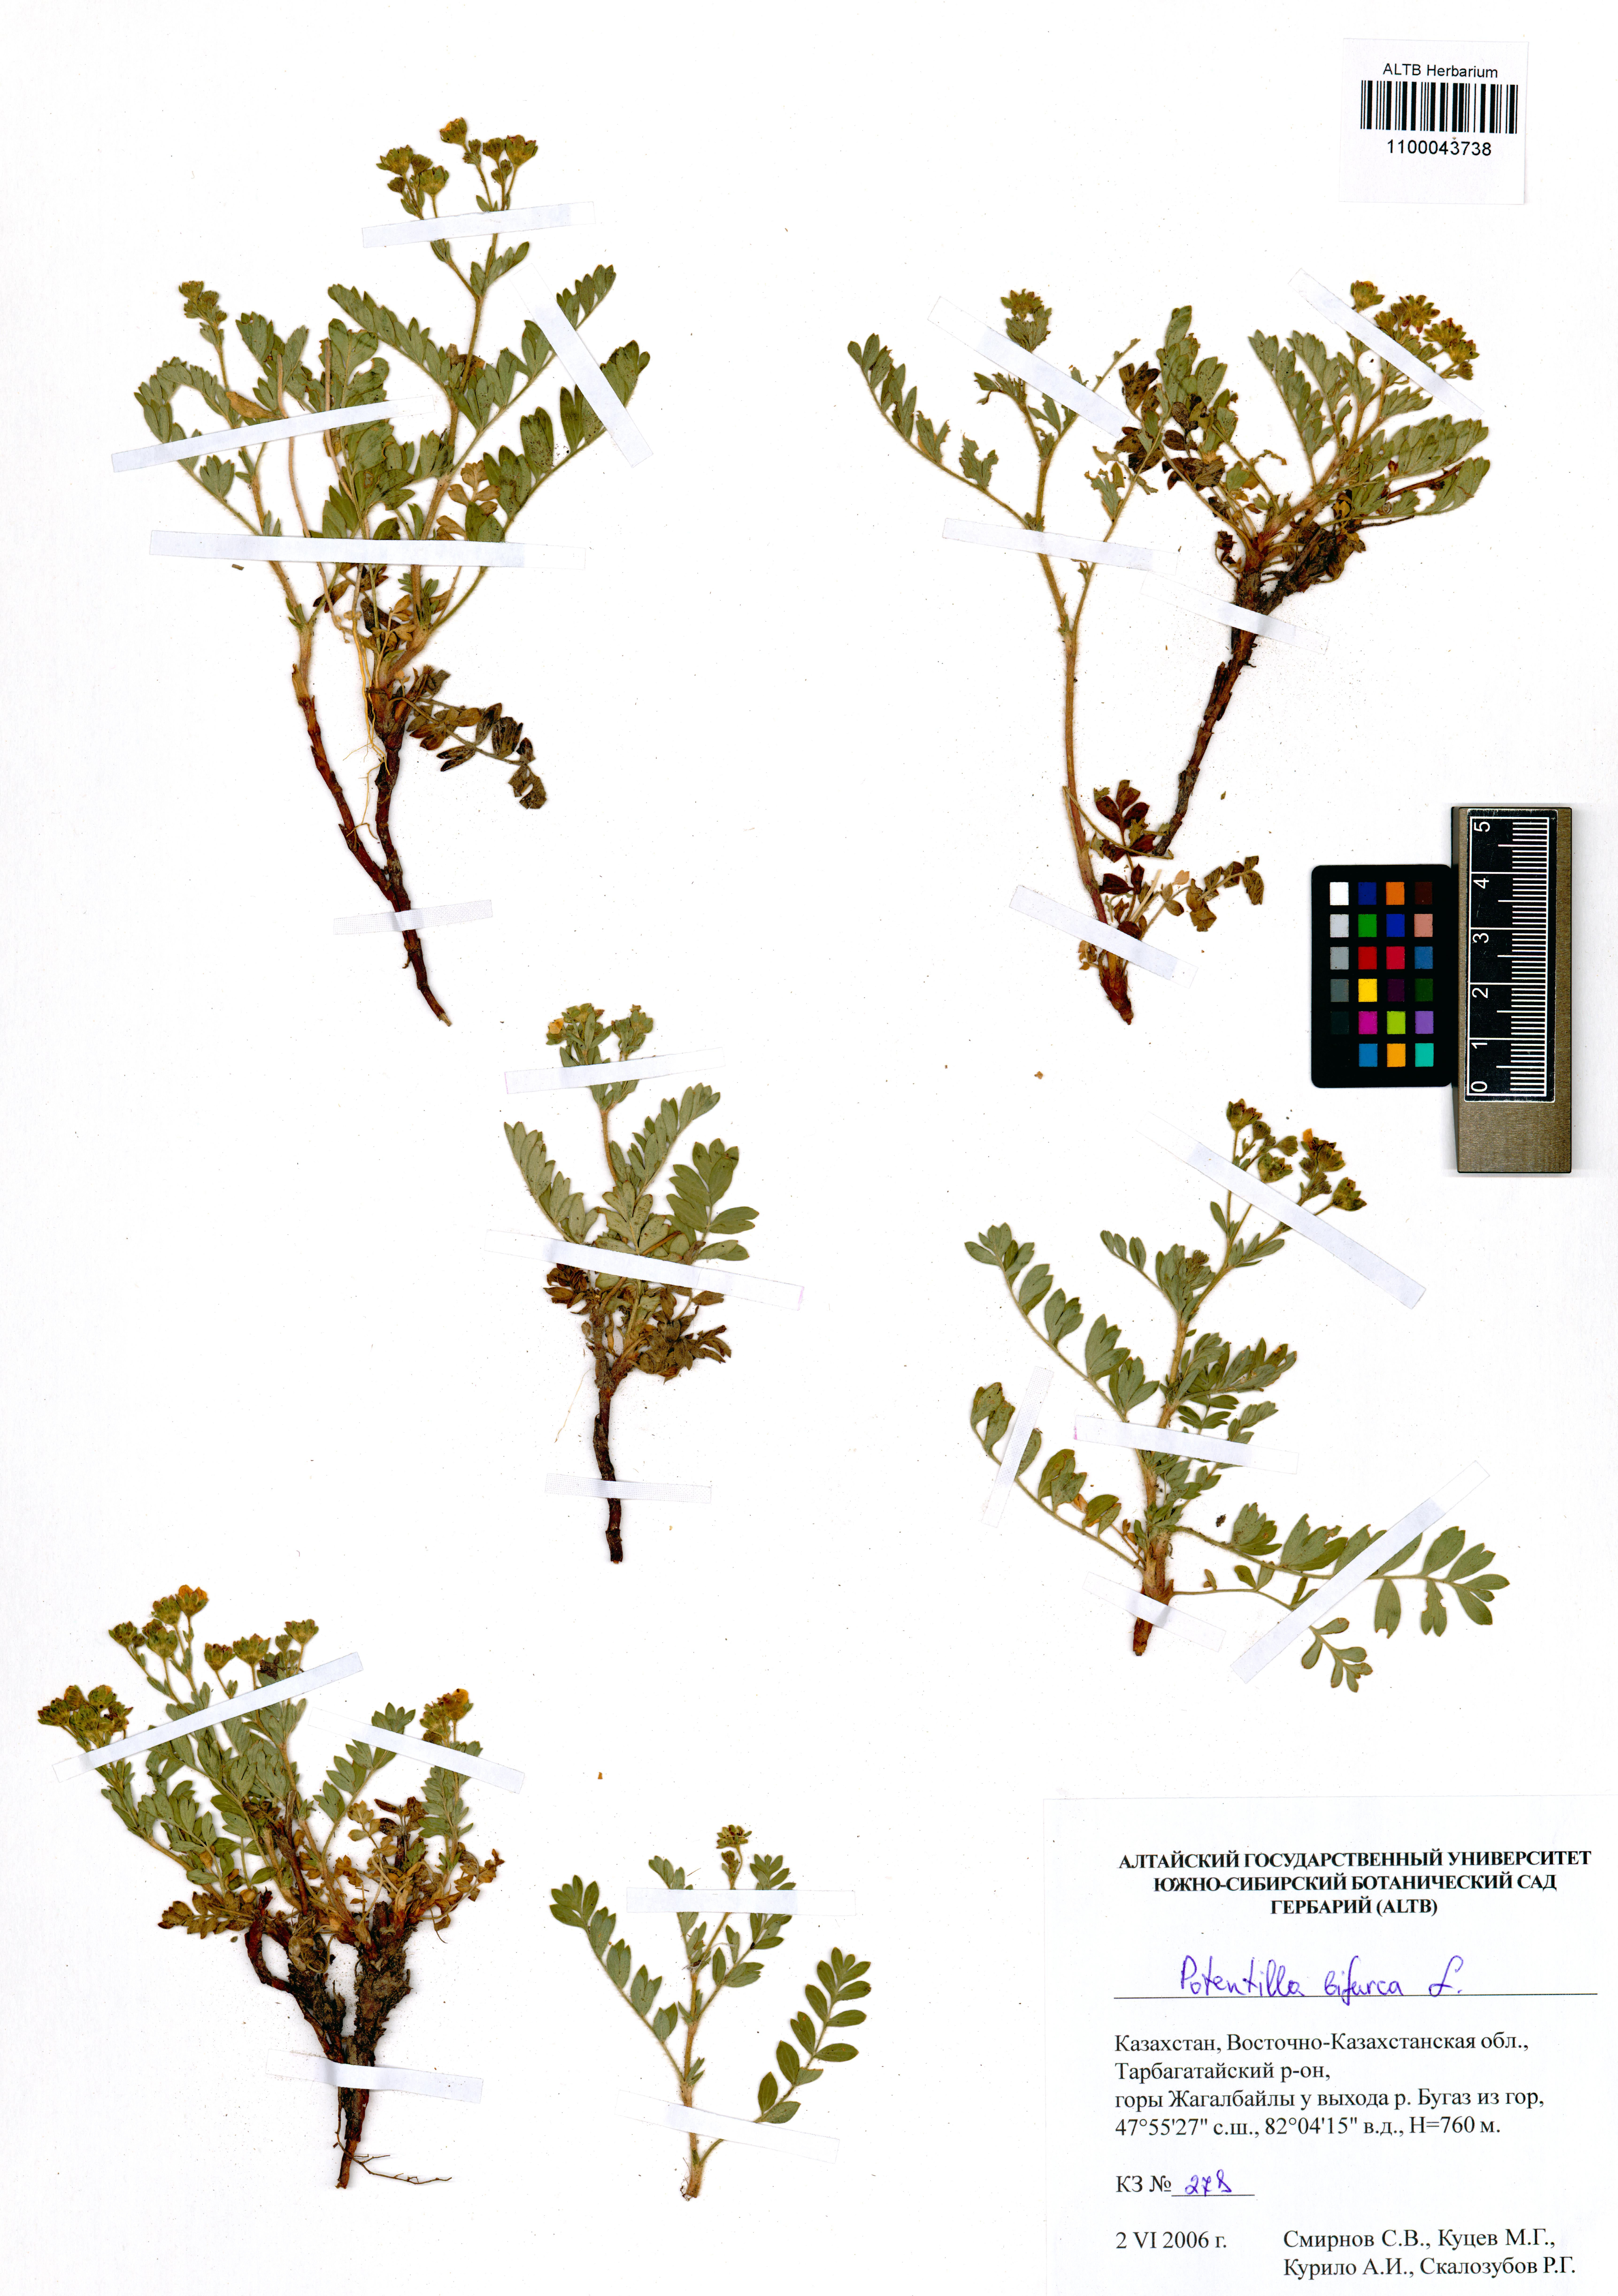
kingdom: Plantae
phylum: Tracheophyta
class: Magnoliopsida
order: Rosales
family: Rosaceae
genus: Sibbaldianthe
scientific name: Sibbaldianthe bifurca
